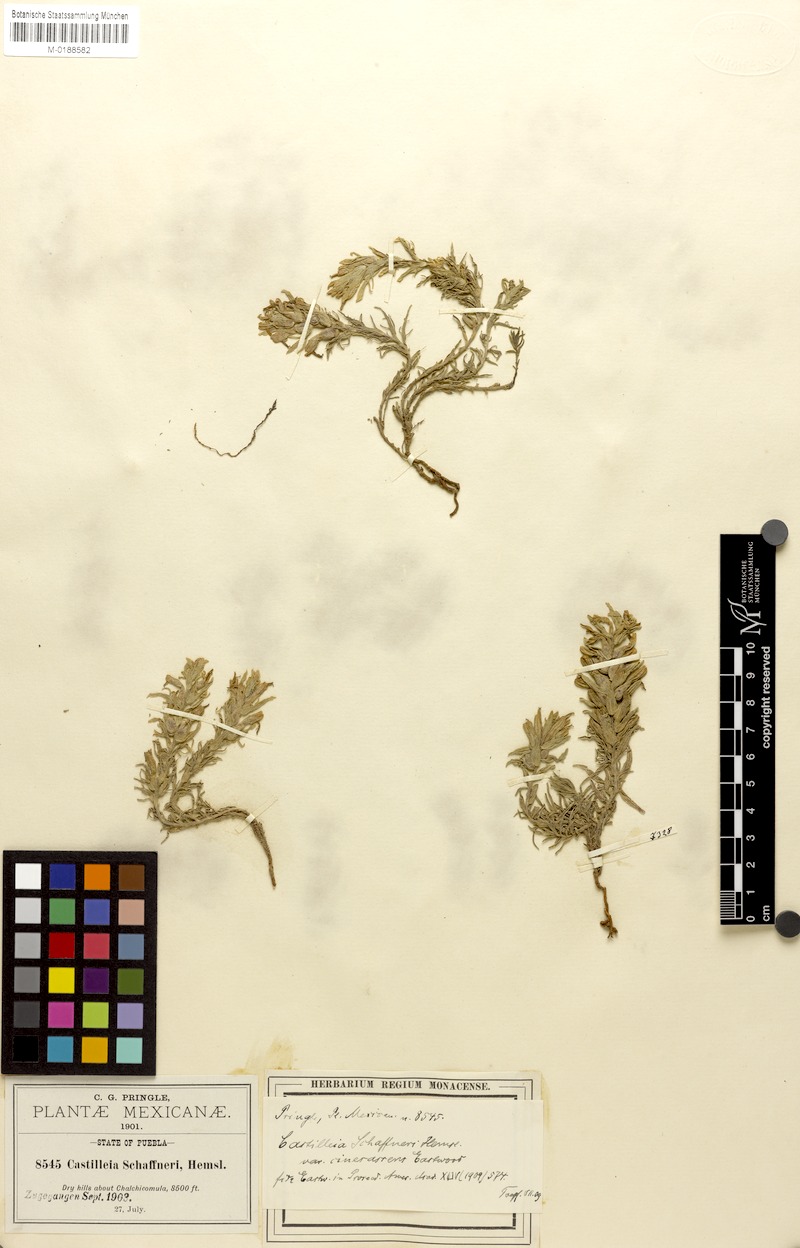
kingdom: Plantae
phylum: Tracheophyta
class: Magnoliopsida
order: Lamiales
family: Orobanchaceae
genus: Castilleja
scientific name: Castilleja moranensis
